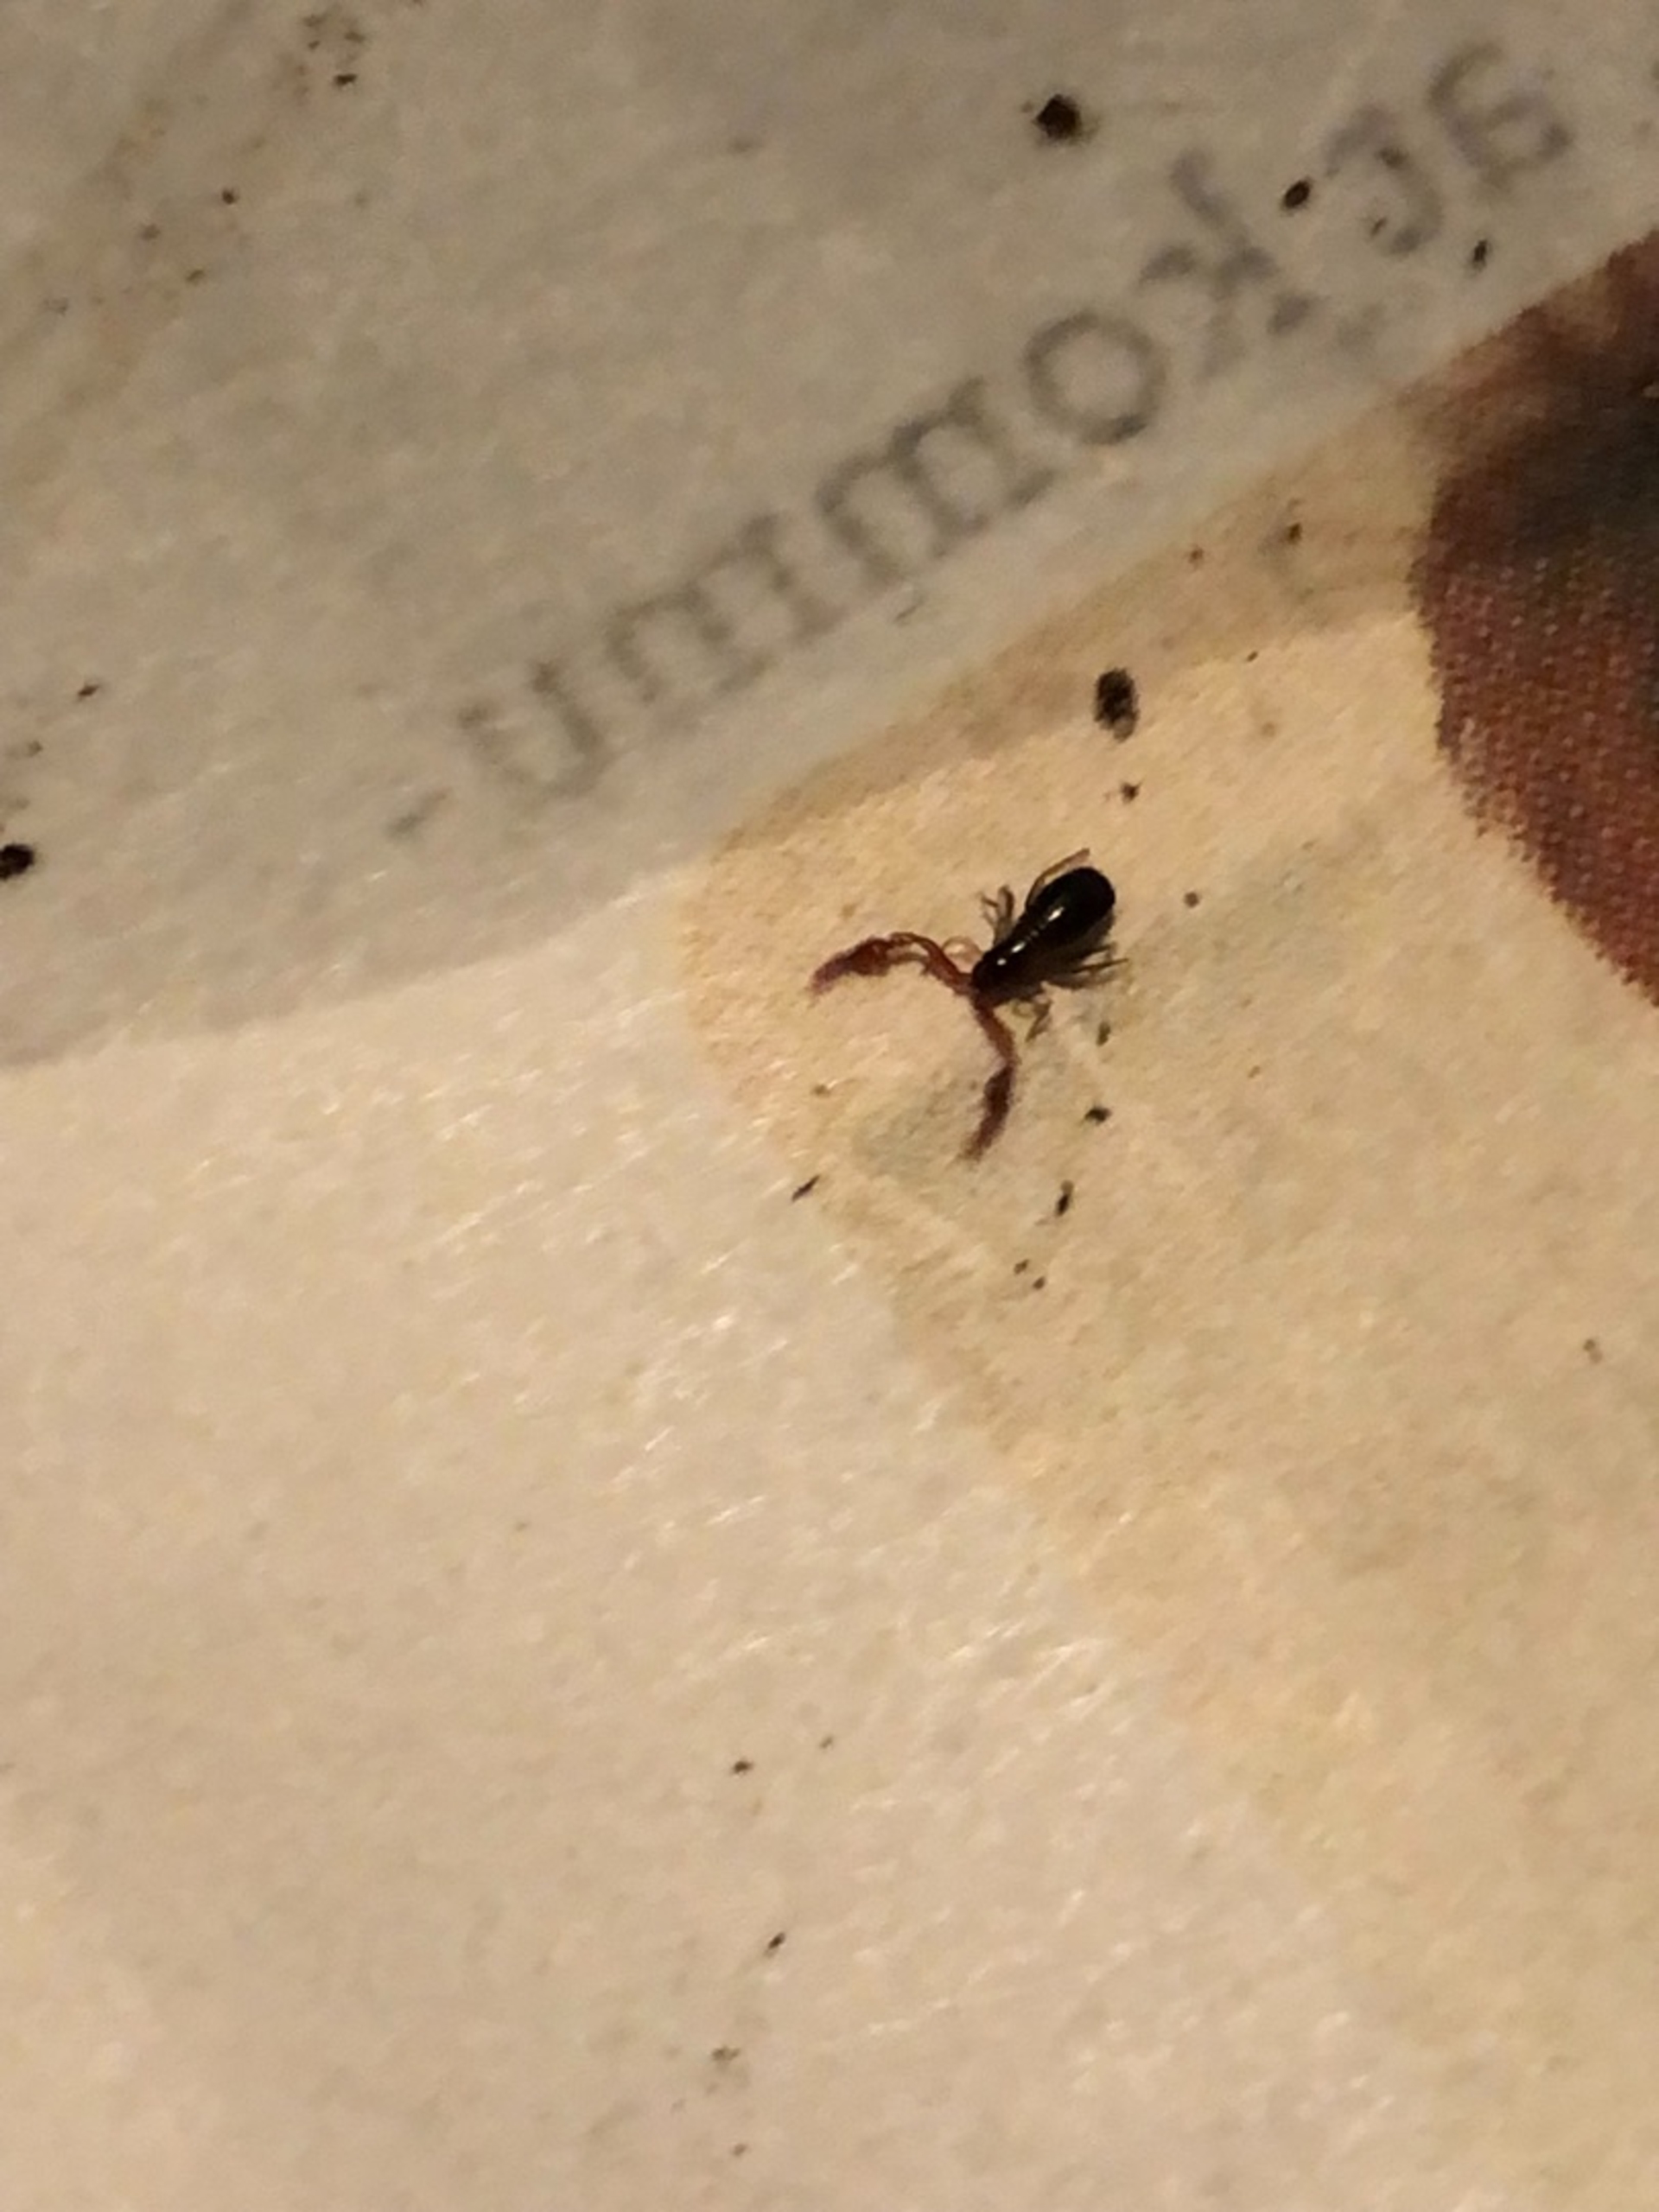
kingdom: Animalia
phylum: Arthropoda
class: Arachnida
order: Pseudoscorpiones
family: Neobisiidae
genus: Neobisium
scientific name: Neobisium carcinoides
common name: Almindelig mosskorpion
